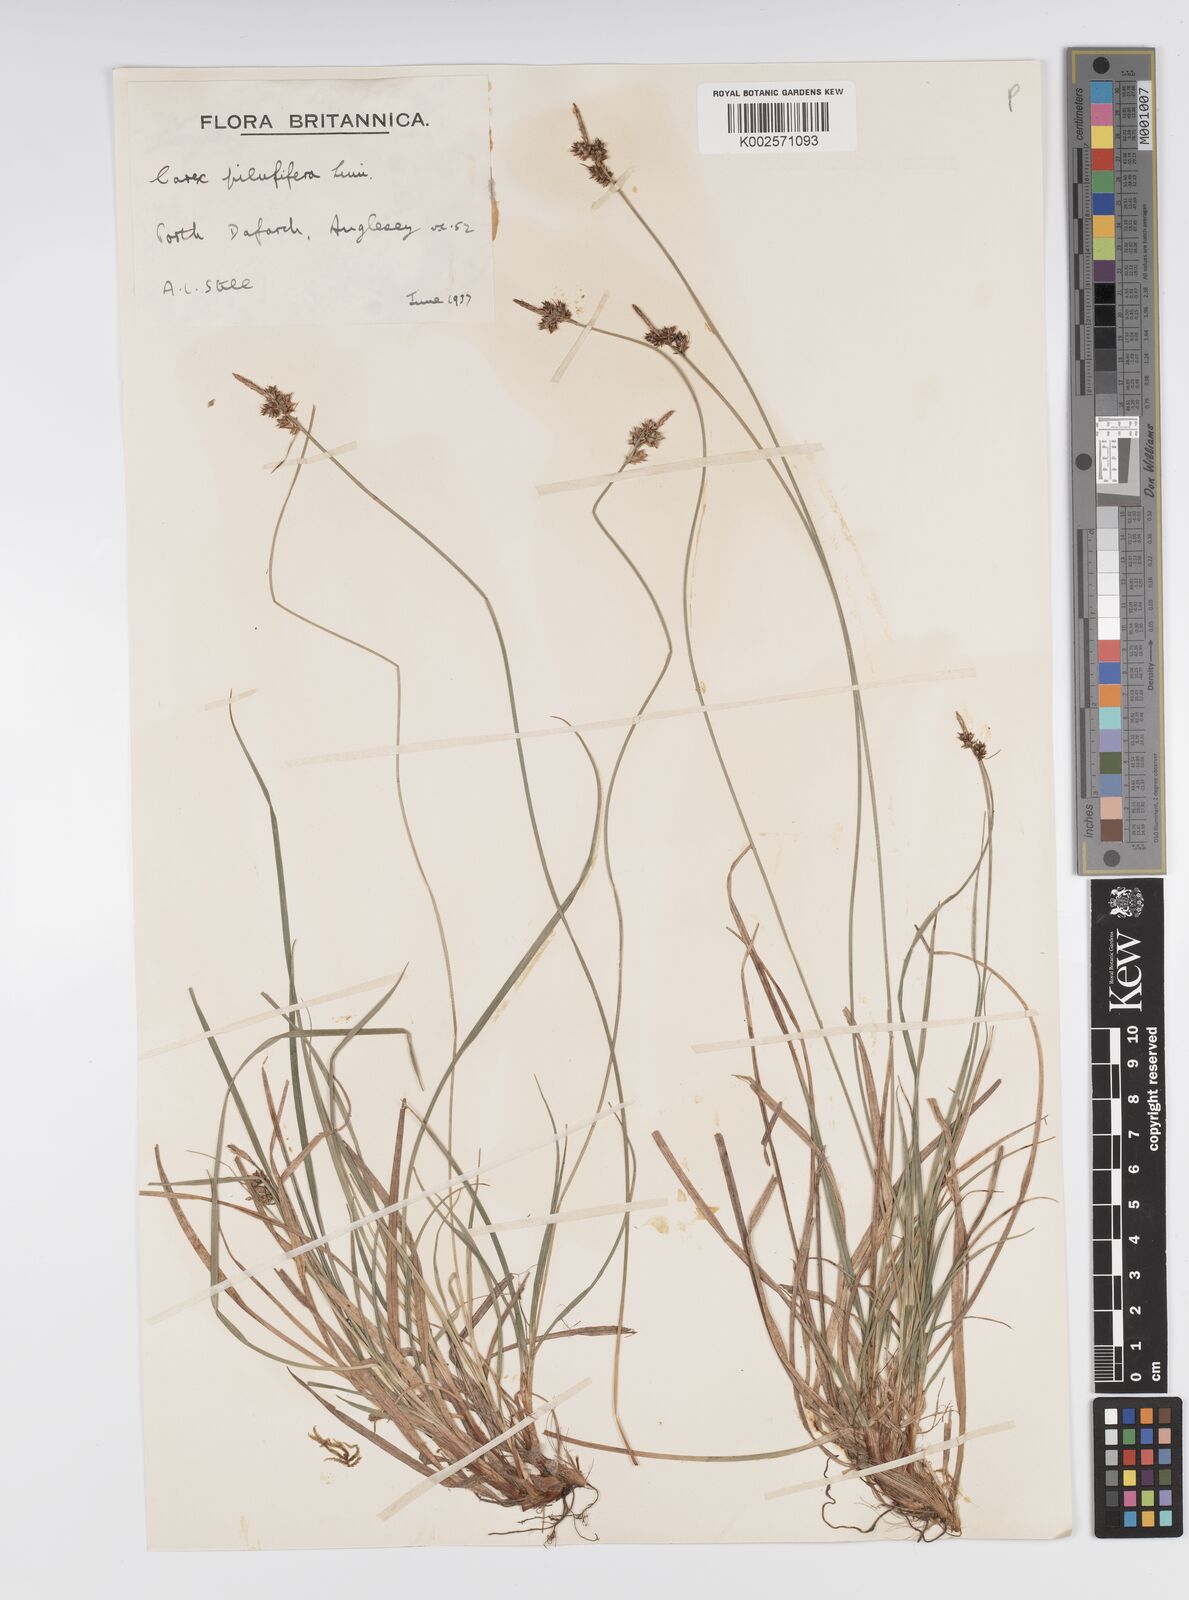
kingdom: Plantae
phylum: Tracheophyta
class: Liliopsida
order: Poales
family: Cyperaceae
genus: Carex
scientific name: Carex pilulifera
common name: Pill sedge
